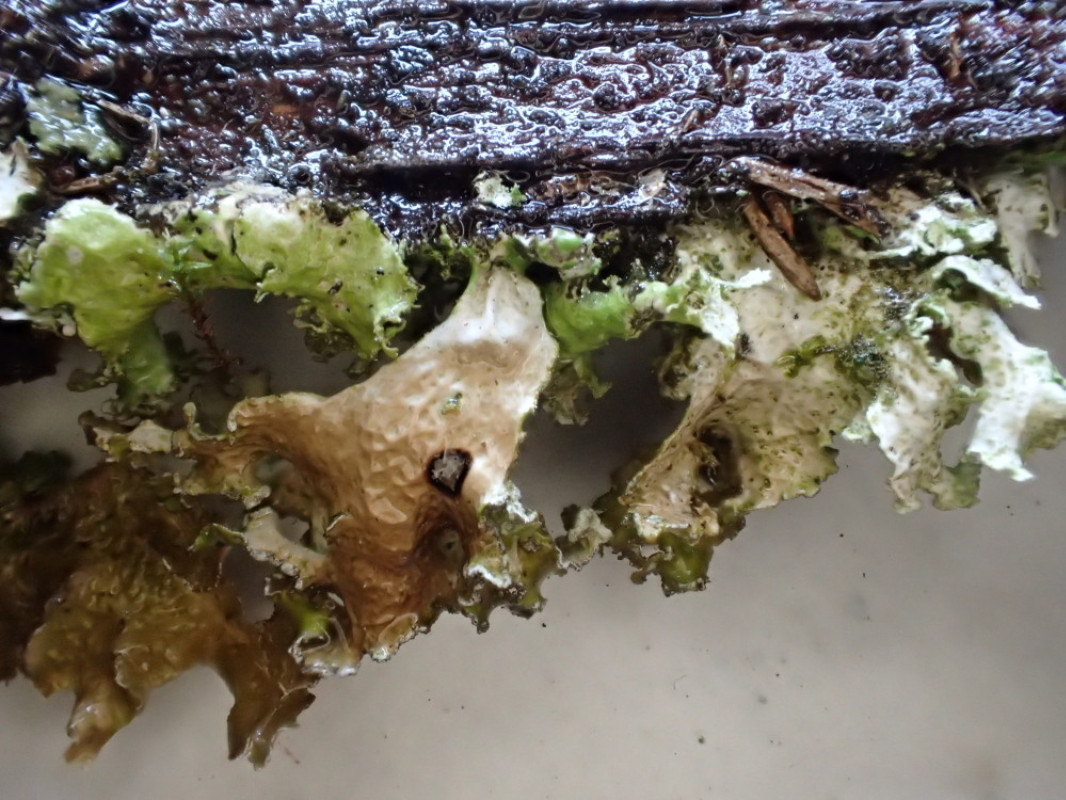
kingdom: Fungi
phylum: Ascomycota
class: Lecanoromycetes
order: Lecanorales
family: Parmeliaceae
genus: Nephromopsis
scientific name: Nephromopsis chlorophylla
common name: olivenbrun kruslav
